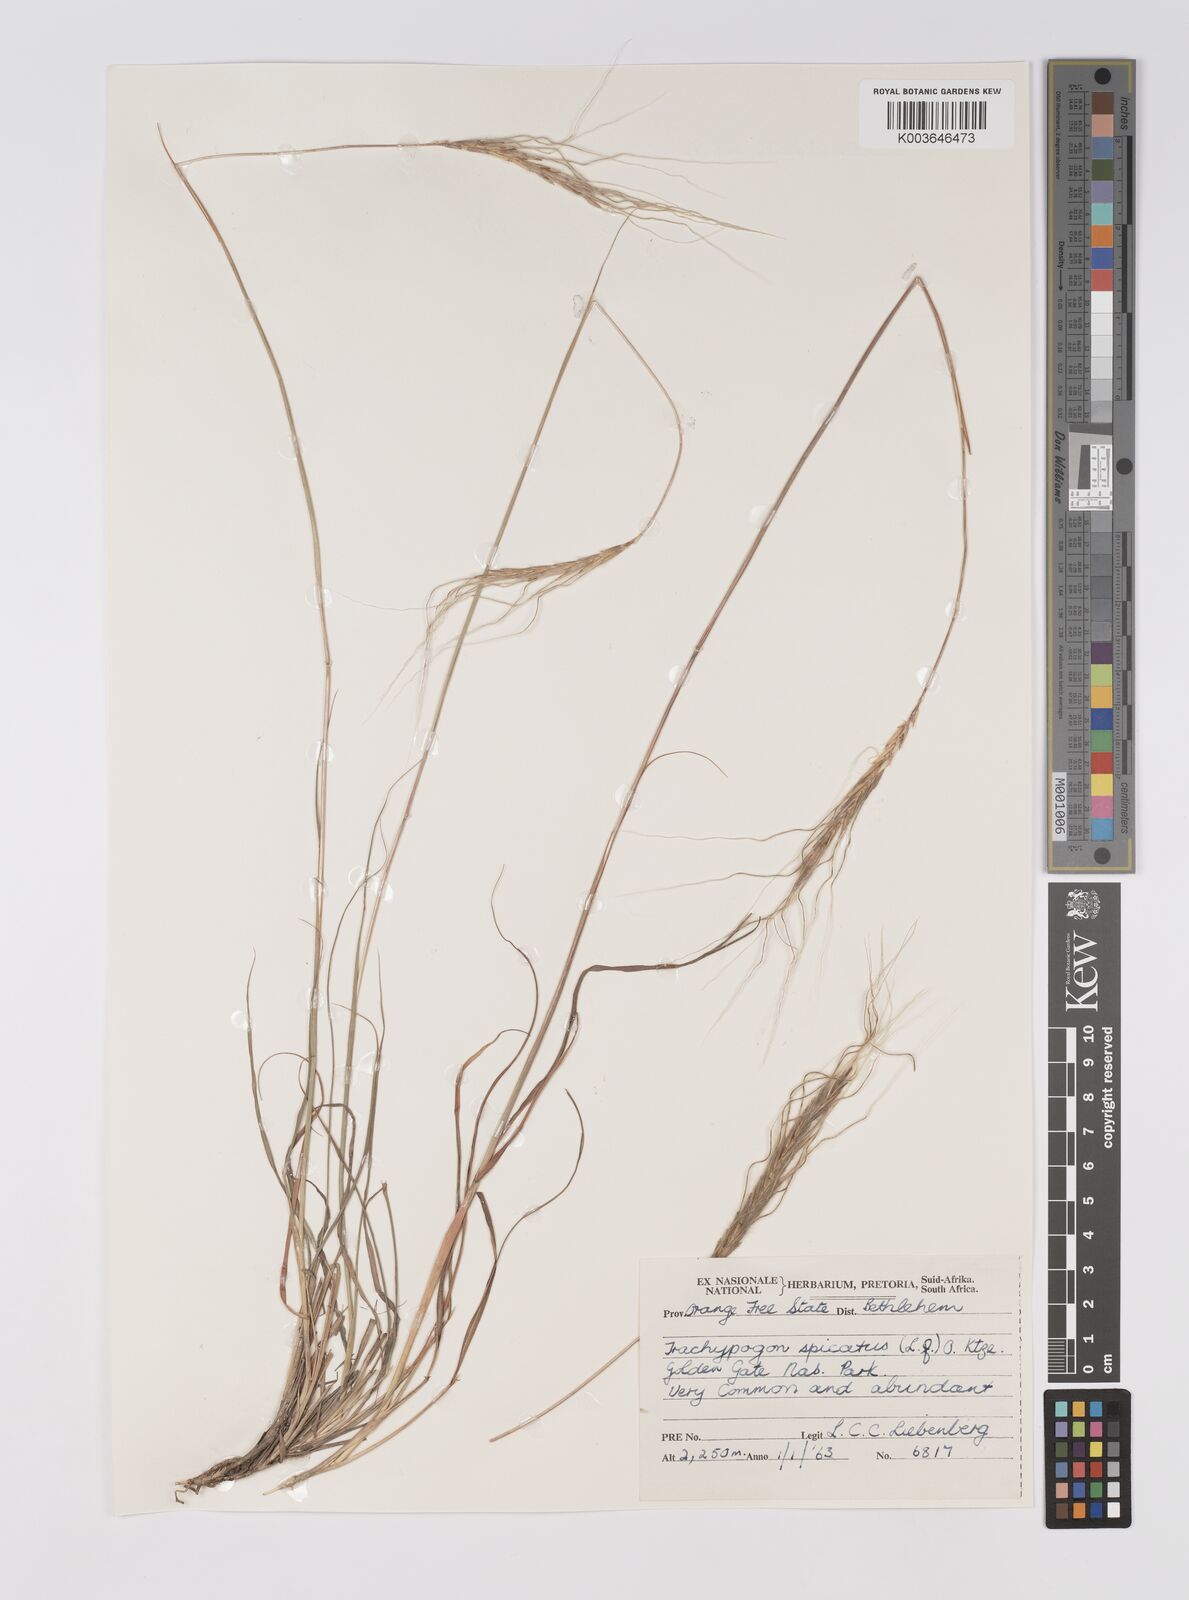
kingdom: Plantae
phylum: Tracheophyta
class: Liliopsida
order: Poales
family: Poaceae
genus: Trachypogon
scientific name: Trachypogon spicatus
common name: Crinkle-awn
